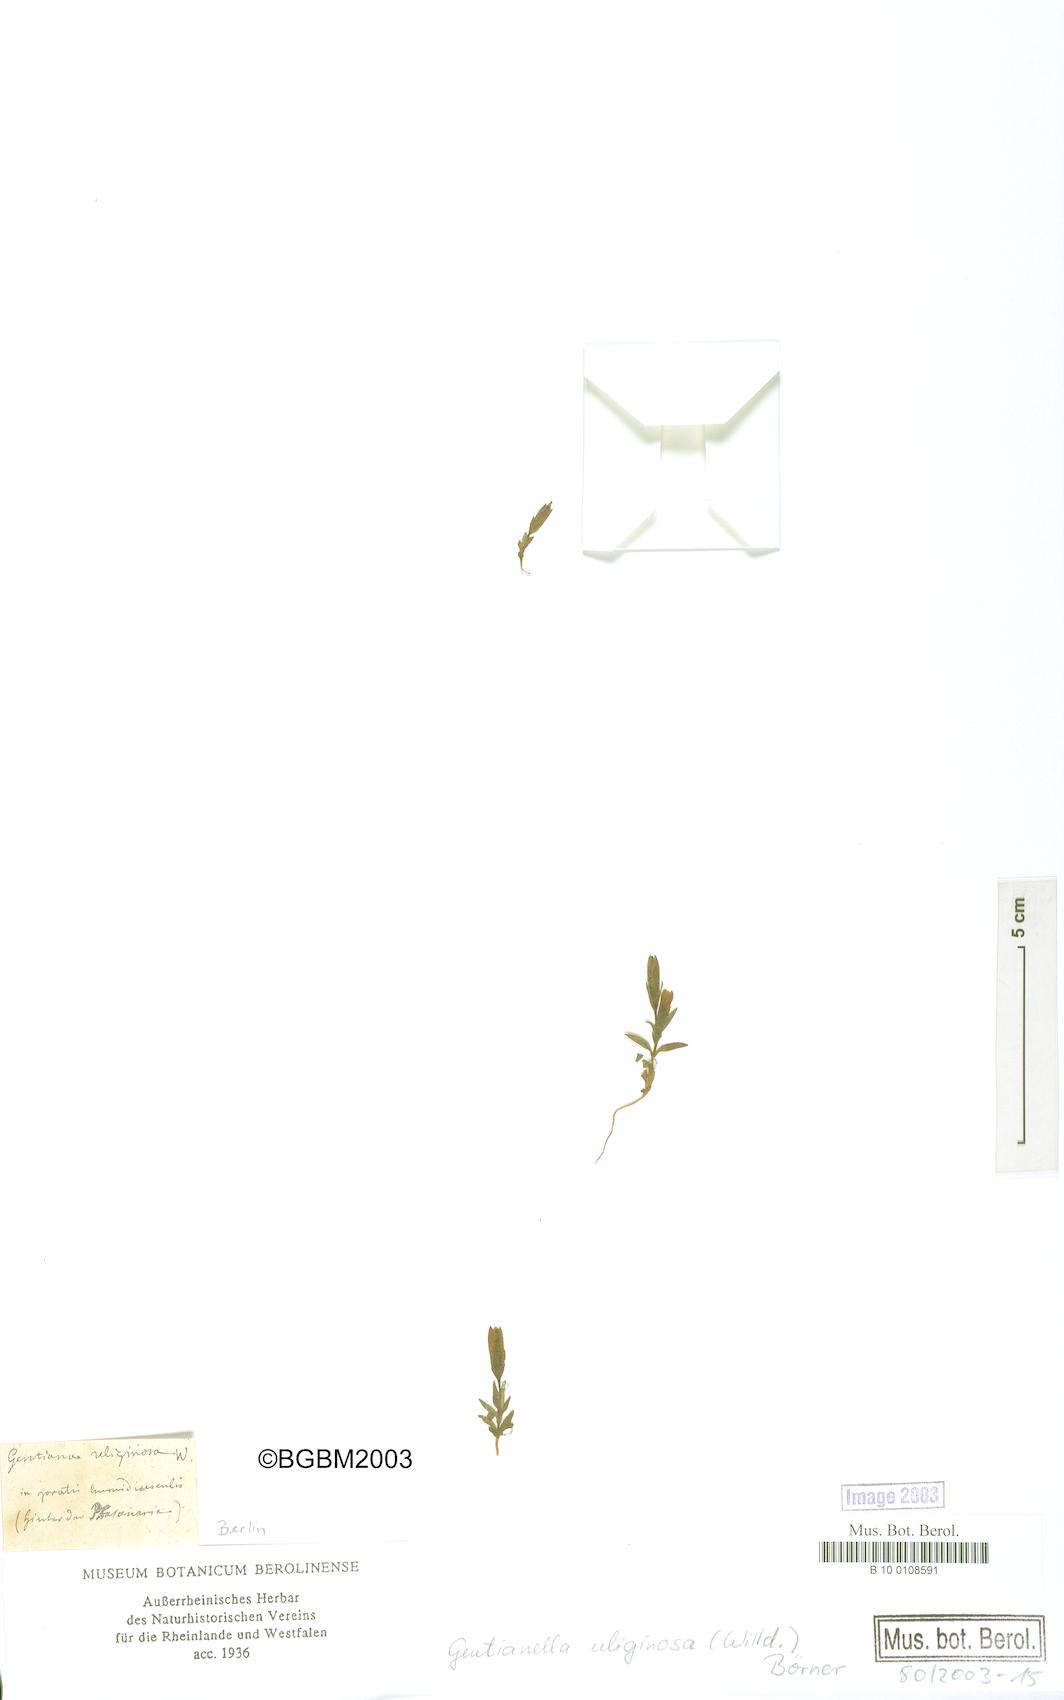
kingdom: Plantae
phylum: Tracheophyta
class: Magnoliopsida
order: Gentianales
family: Gentianaceae
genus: Gentianella
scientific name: Gentianella uliginosa
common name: Dune gentian
